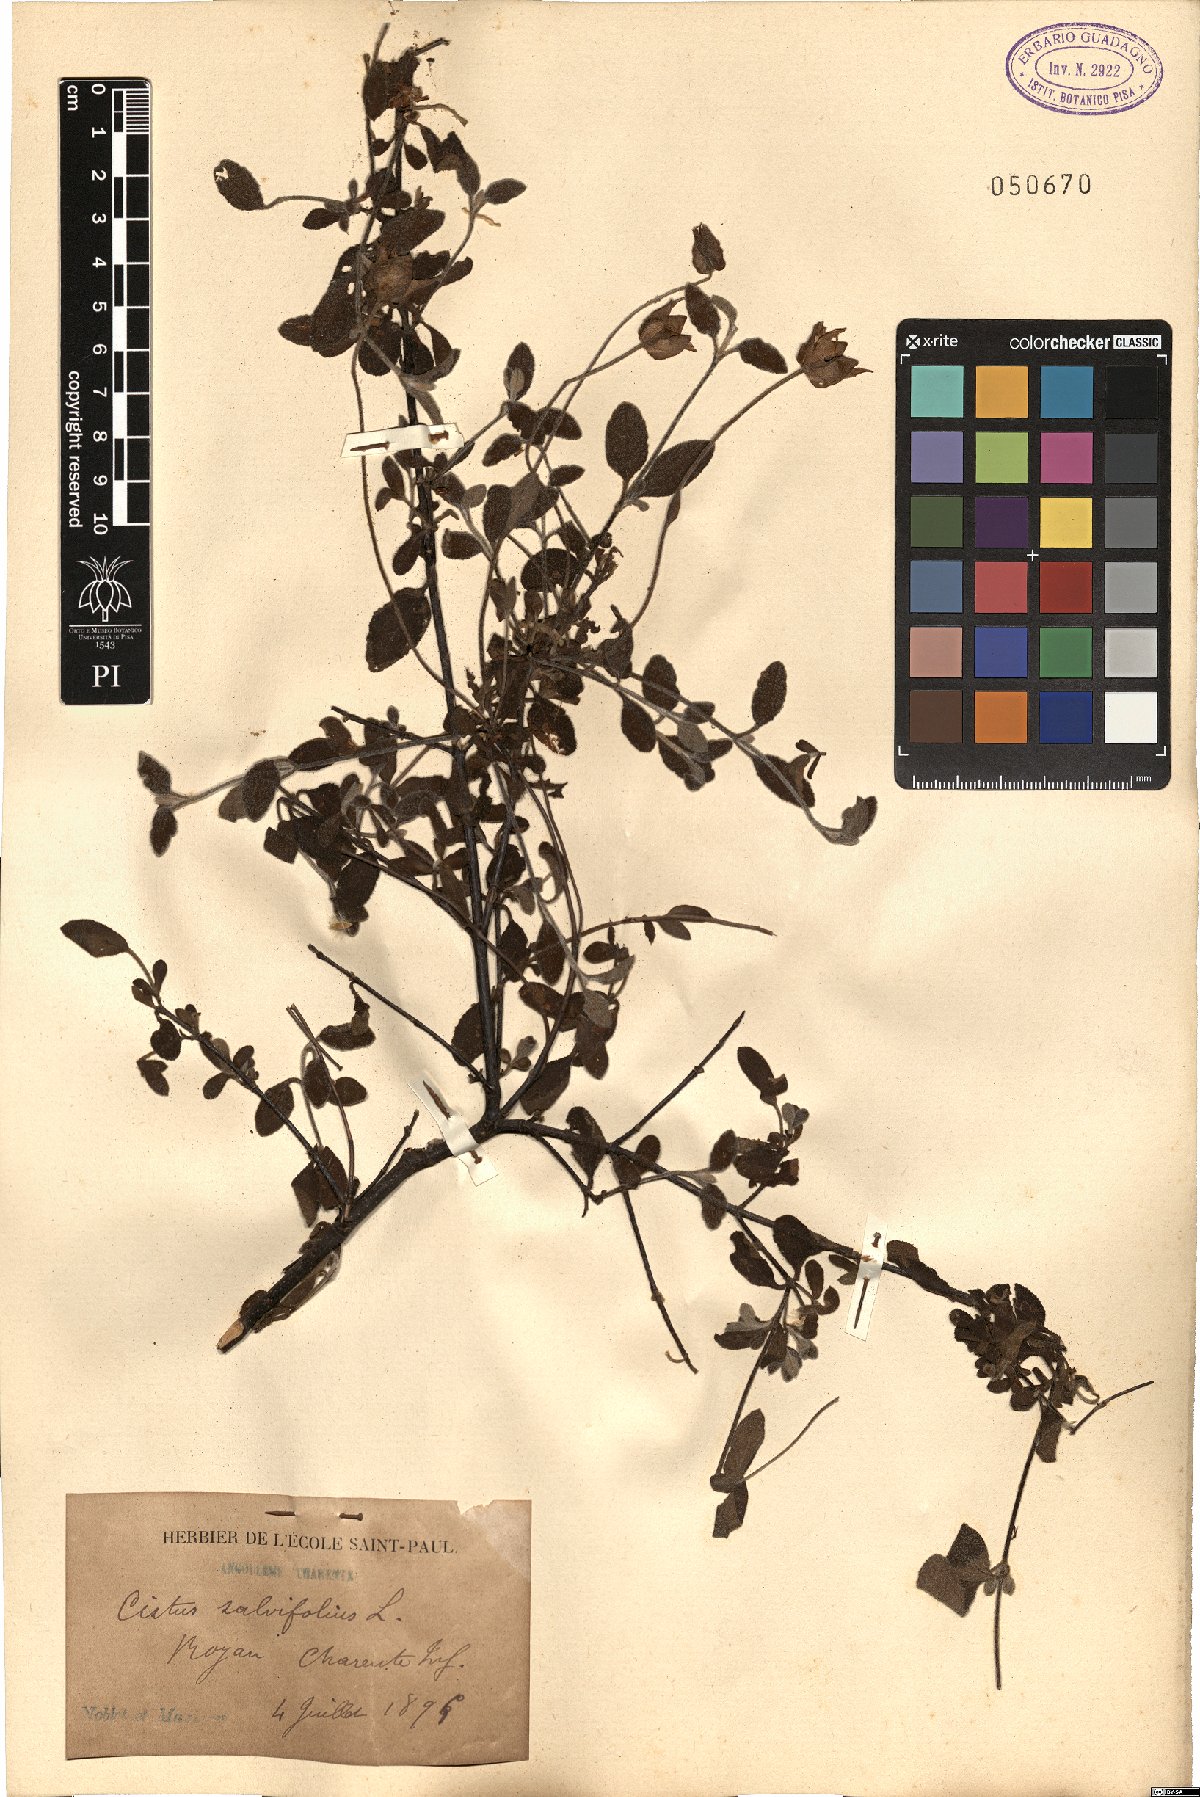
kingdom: Plantae
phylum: Tracheophyta
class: Magnoliopsida
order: Malvales
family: Cistaceae
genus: Cistus
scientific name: Cistus salviifolius
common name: Salvia cistus
